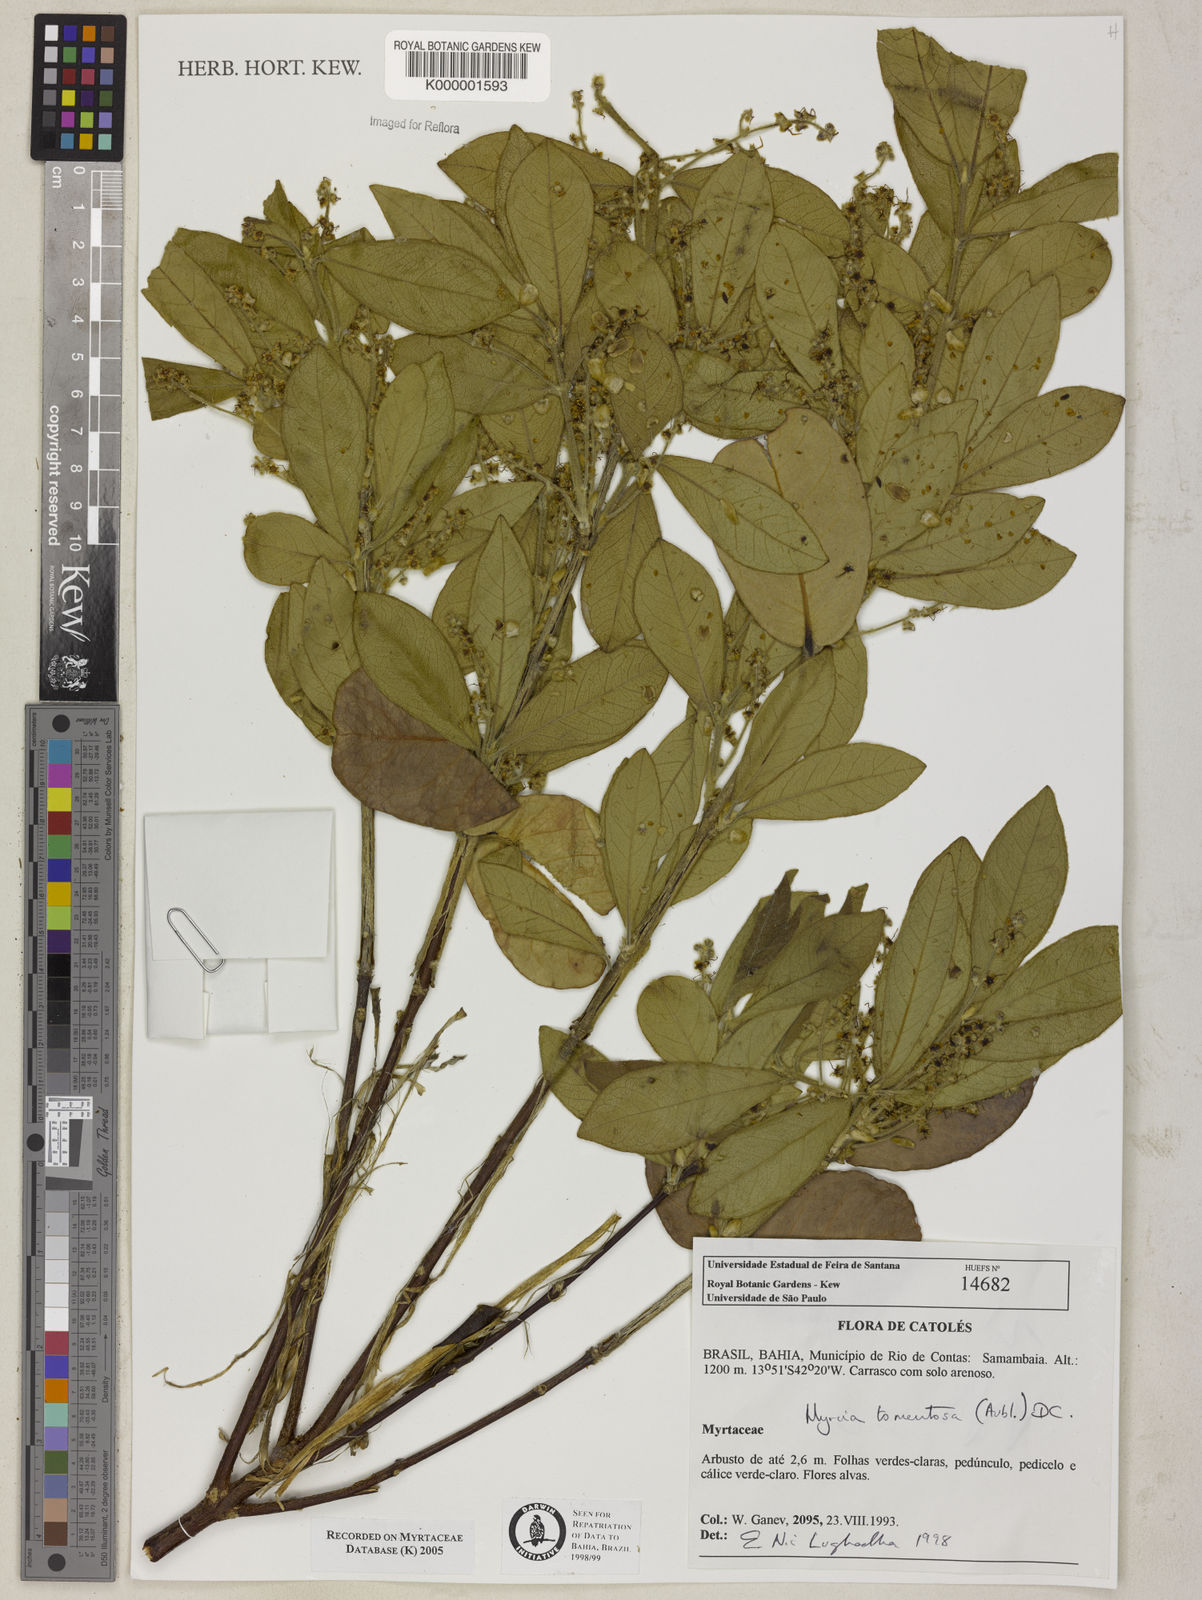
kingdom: Plantae
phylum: Tracheophyta
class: Magnoliopsida
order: Myrtales
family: Myrtaceae
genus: Myrcia
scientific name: Myrcia tomentosa
